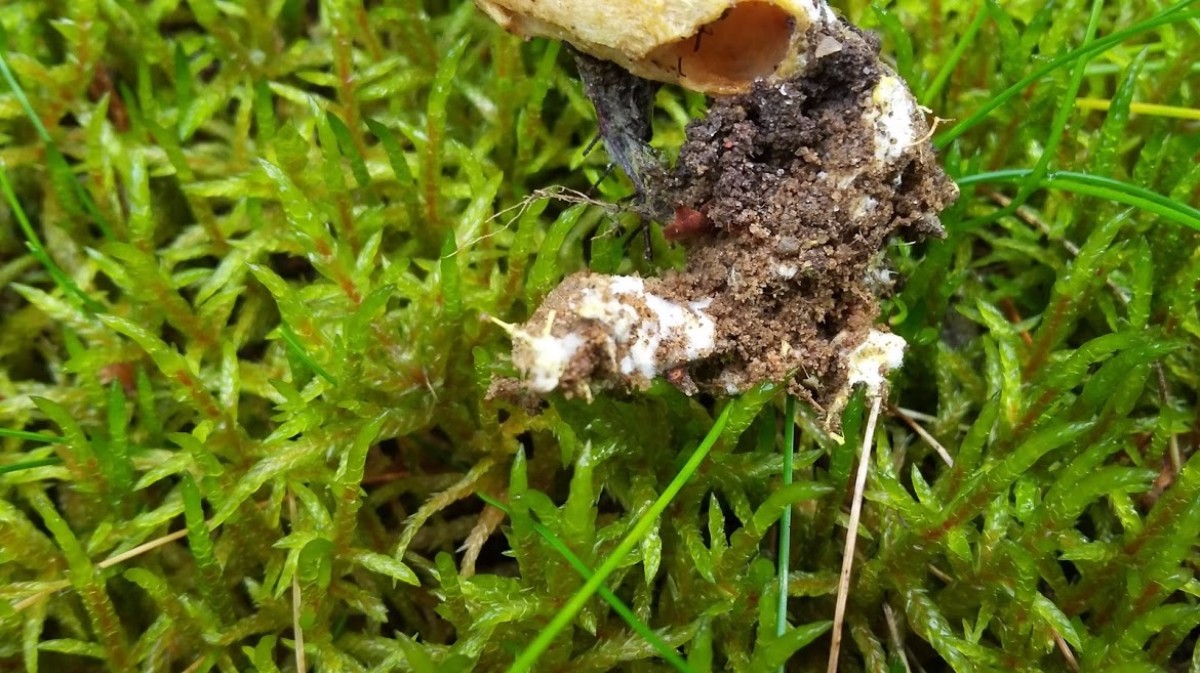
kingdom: Fungi
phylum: Basidiomycota
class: Agaricomycetes
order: Boletales
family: Boletaceae
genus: Xerocomus
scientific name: Xerocomus ferrugineus
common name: vaskeskinds-rørhat
